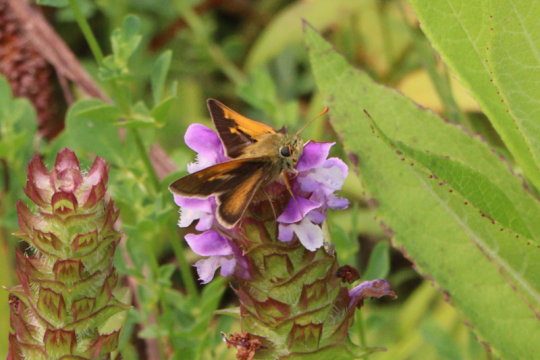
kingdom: Animalia
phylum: Arthropoda
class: Insecta
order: Lepidoptera
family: Hesperiidae
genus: Polites
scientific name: Polites themistocles
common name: Tawny-edged Skipper
